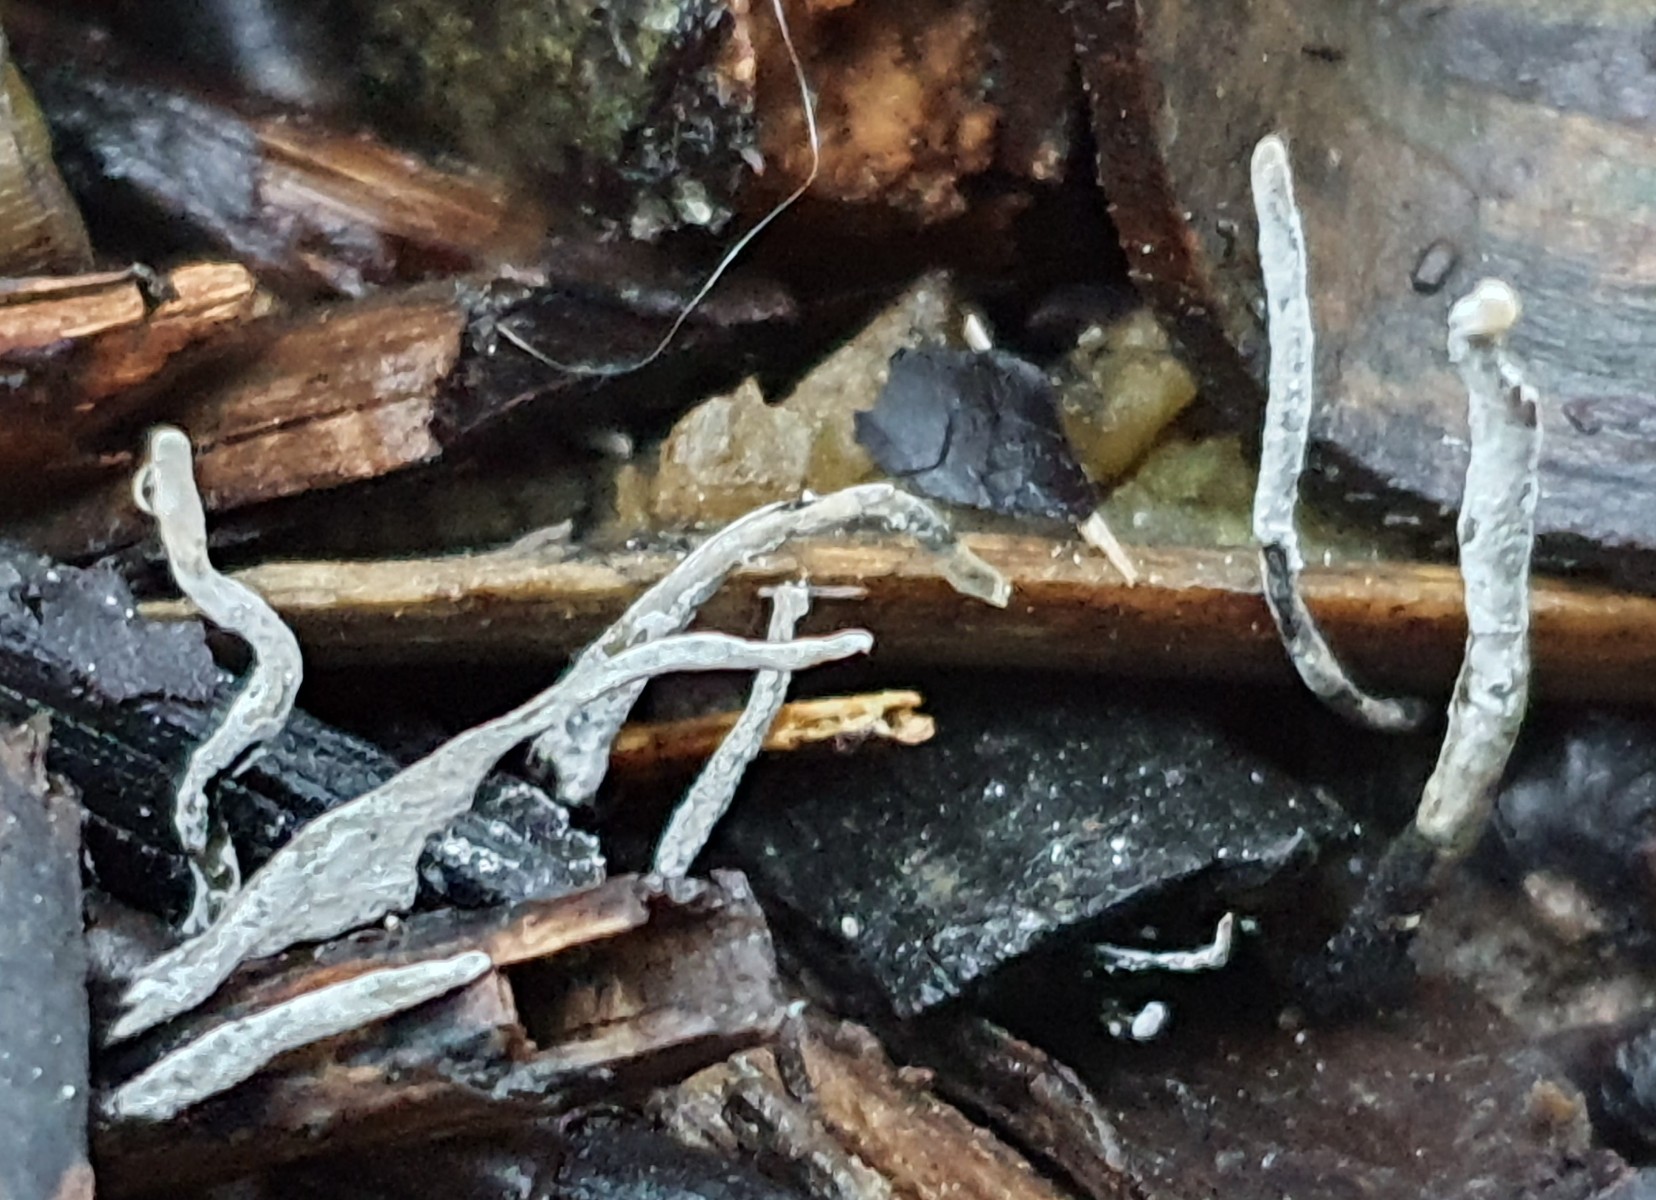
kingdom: Fungi
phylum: Ascomycota
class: Sordariomycetes
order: Xylariales
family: Xylariaceae
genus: Xylaria
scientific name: Xylaria hypoxylon
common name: grenet stødsvamp
